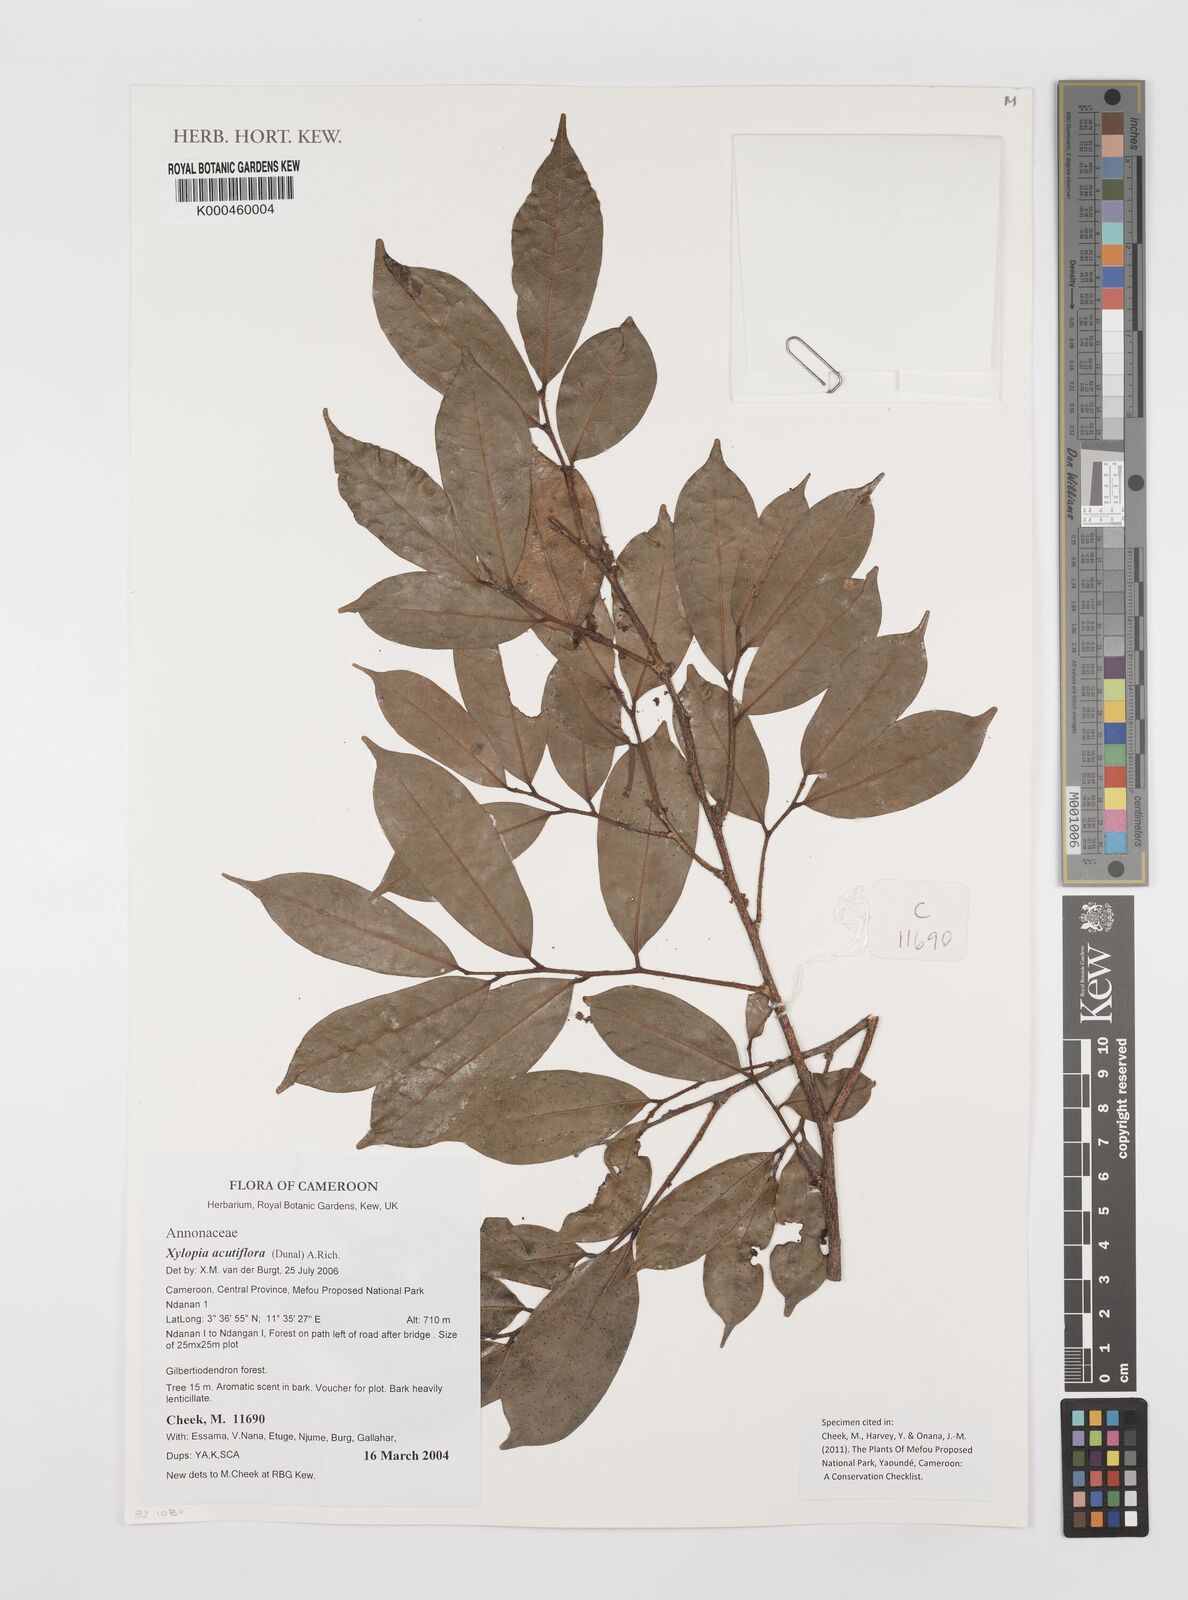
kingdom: Plantae
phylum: Tracheophyta
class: Magnoliopsida
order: Magnoliales
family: Annonaceae
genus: Xylopia
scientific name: Xylopia acutiflora
